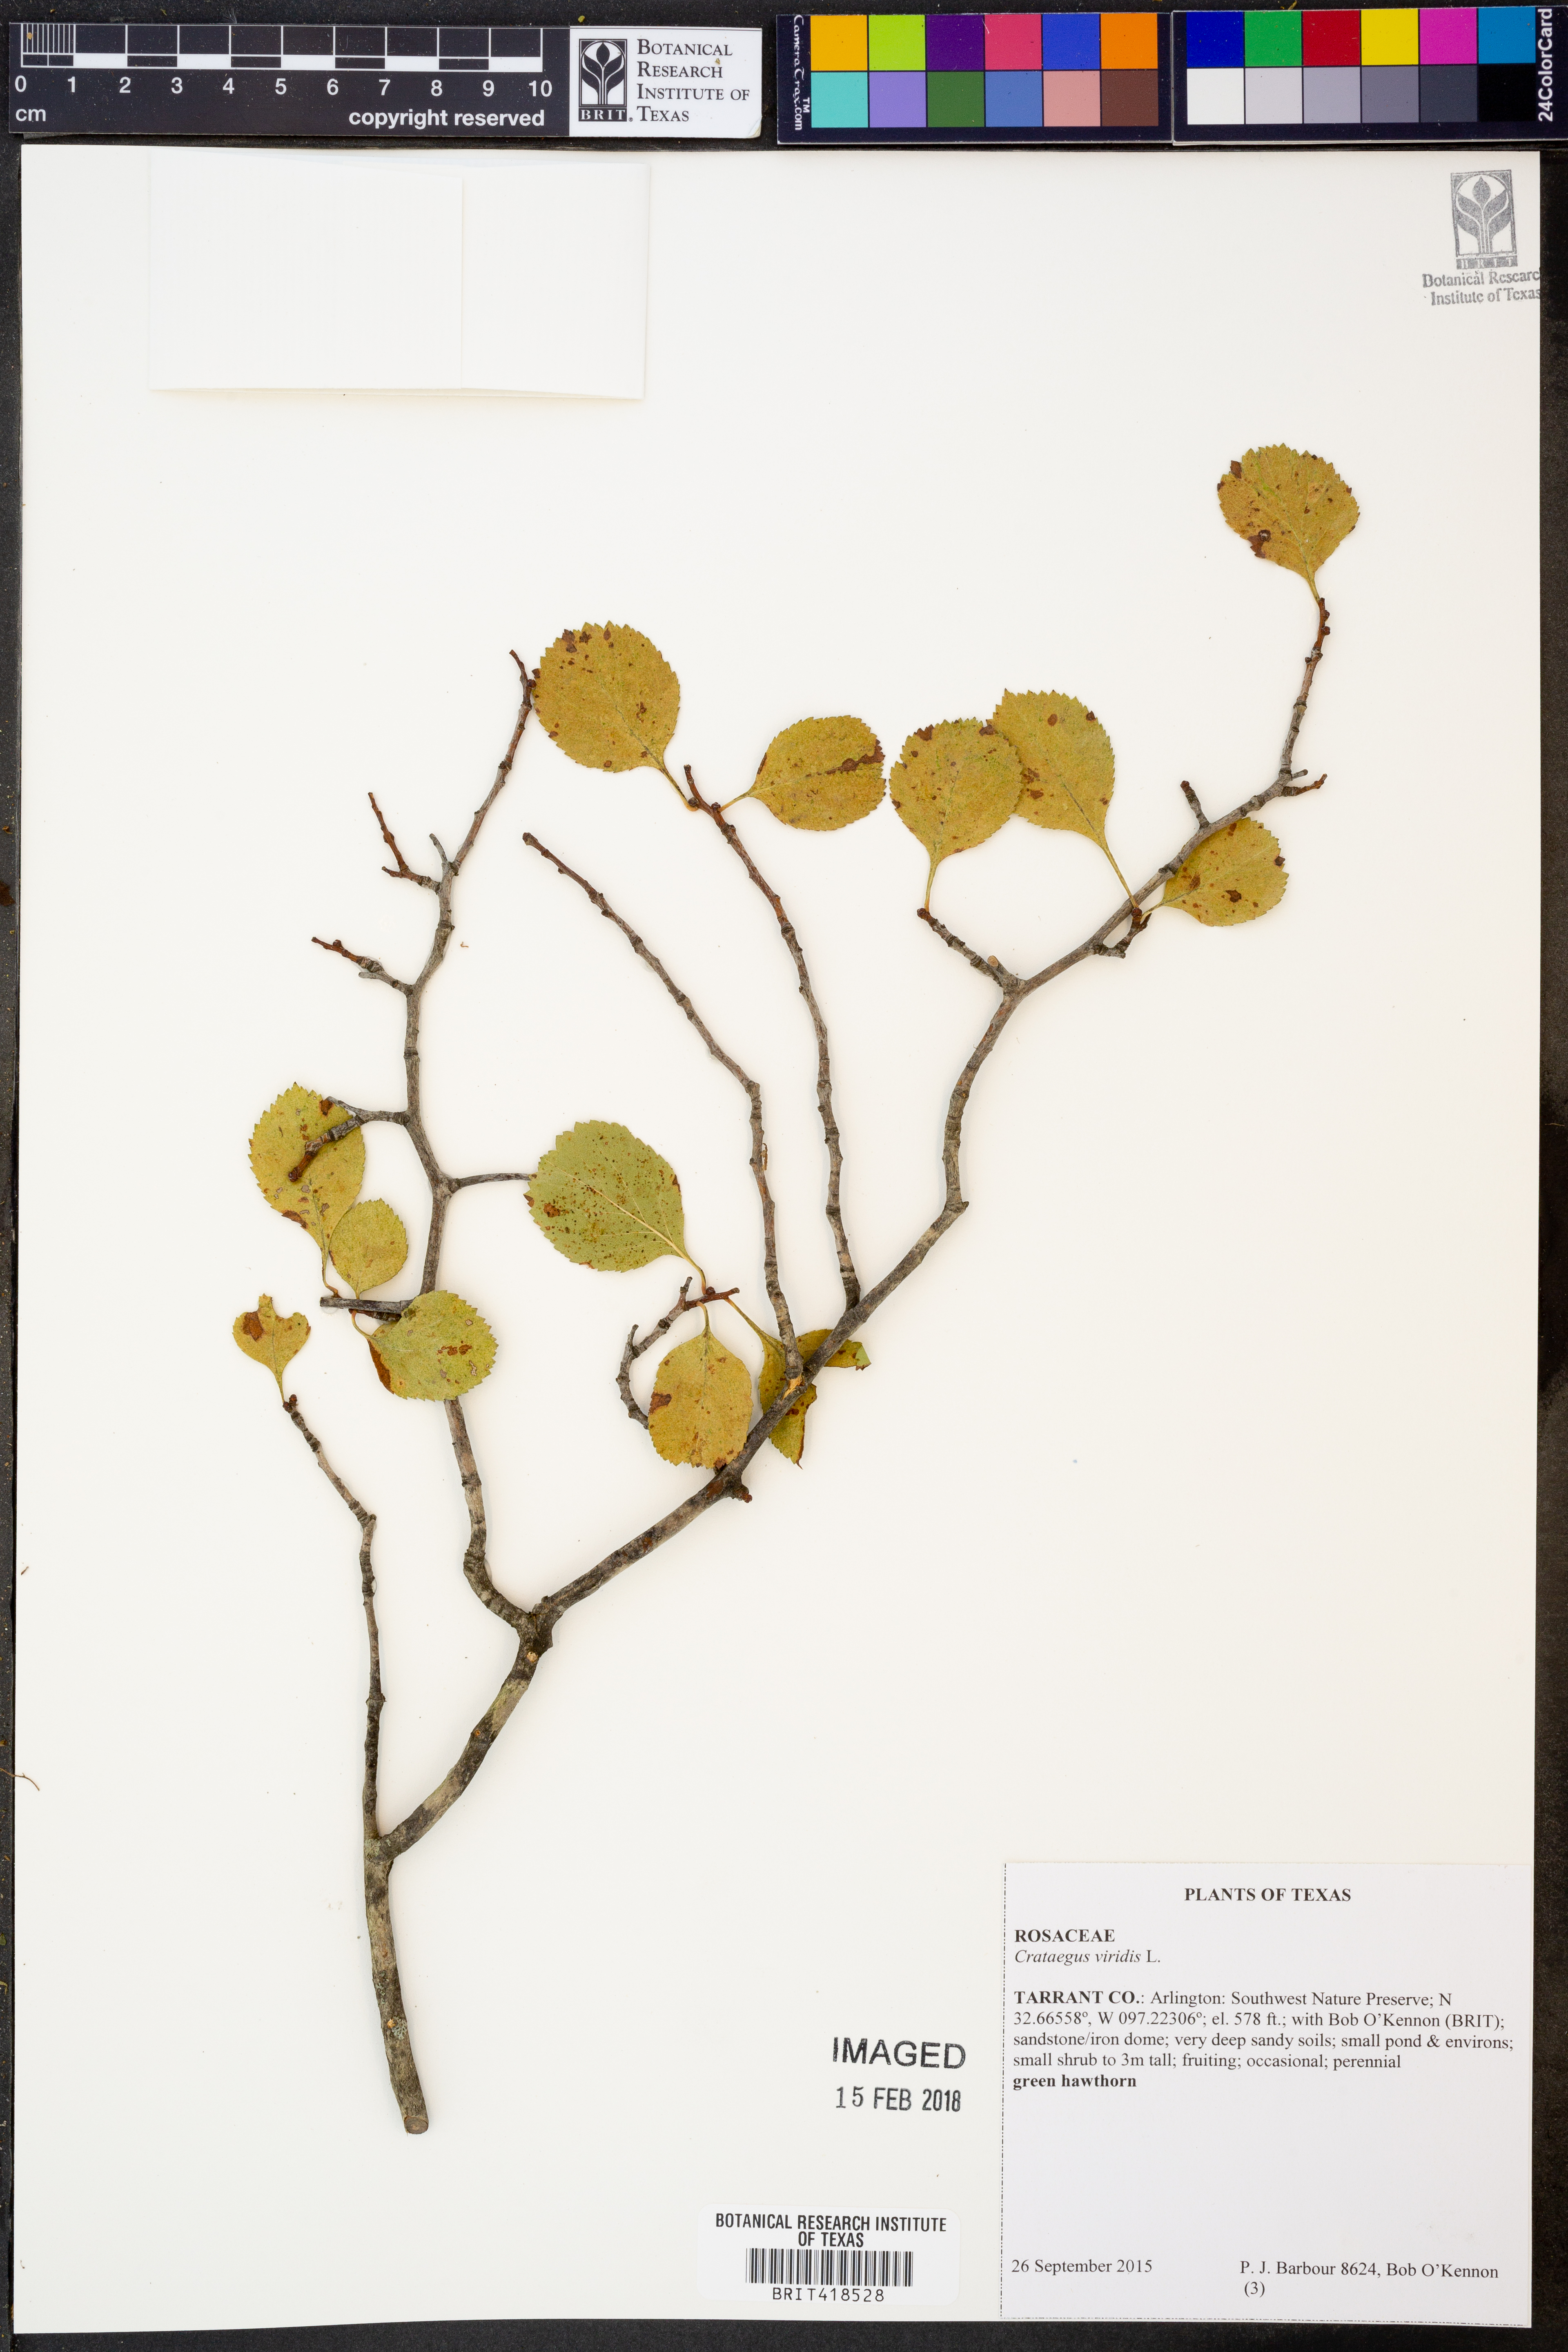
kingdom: Plantae
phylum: Tracheophyta
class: Magnoliopsida
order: Rosales
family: Rosaceae
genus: Crataegus
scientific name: Crataegus viridis
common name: Southernthorn
